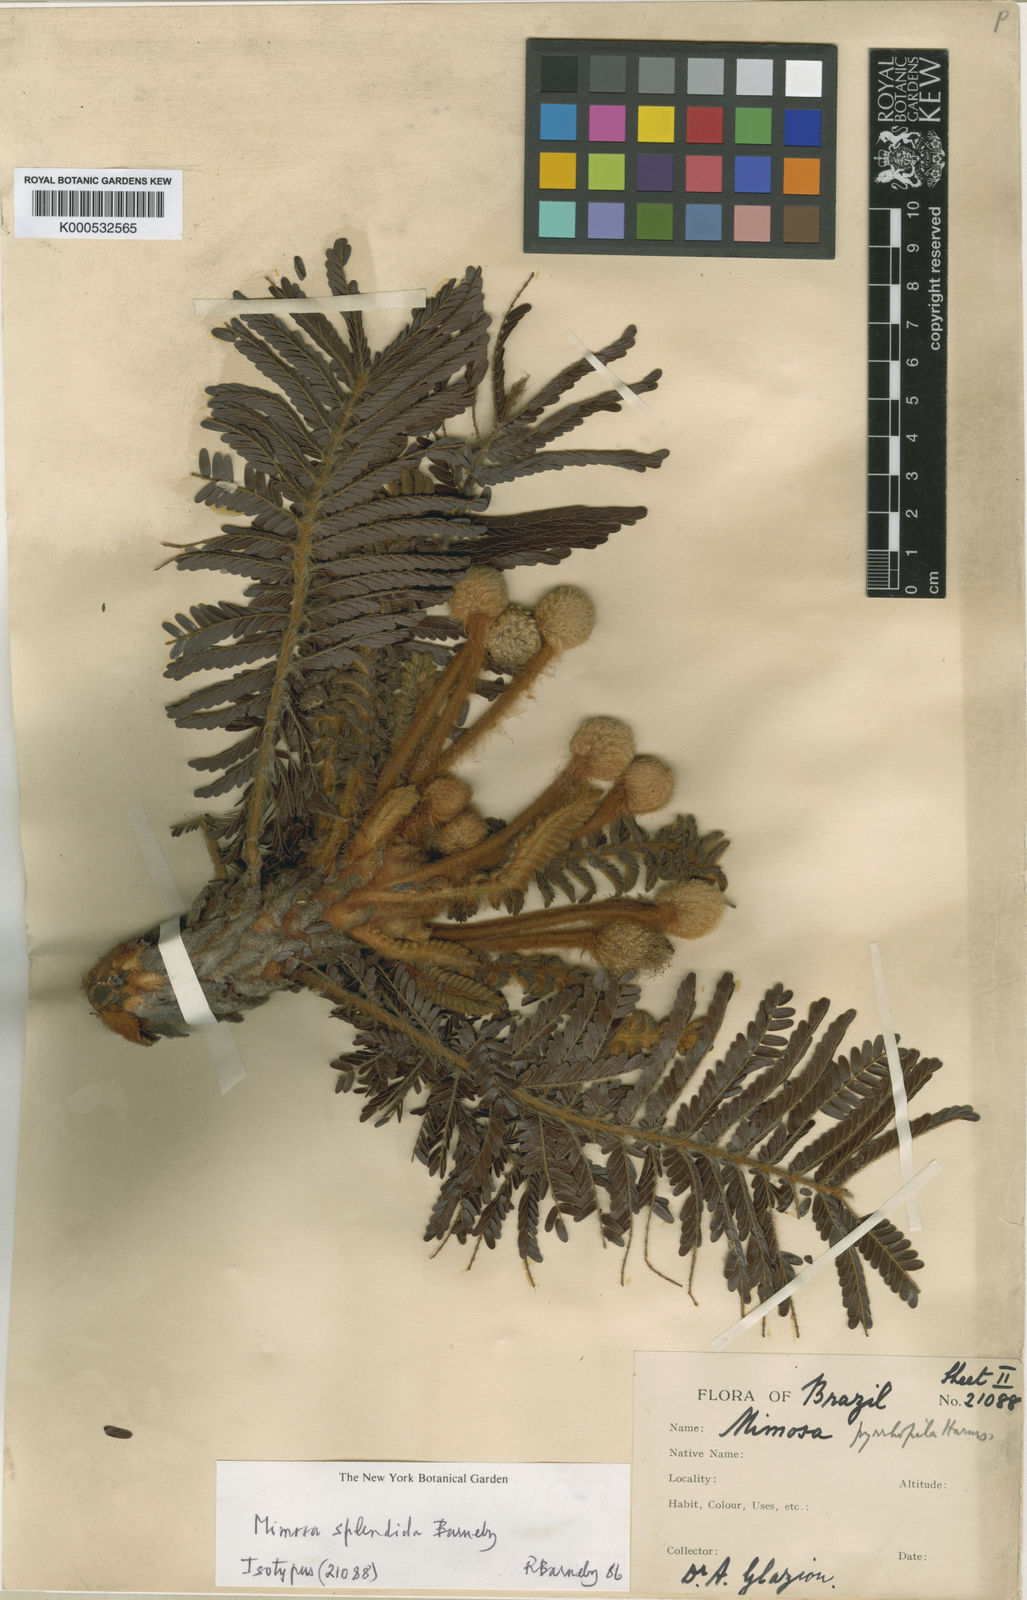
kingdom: Plantae
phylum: Tracheophyta
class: Magnoliopsida
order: Fabales
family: Fabaceae
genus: Mimosa
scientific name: Mimosa splendida
